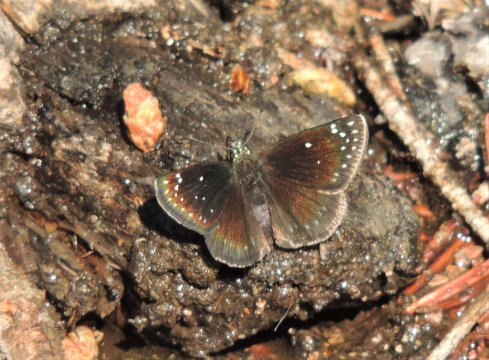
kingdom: Animalia
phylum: Arthropoda
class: Insecta
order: Lepidoptera
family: Hesperiidae
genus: Pholisora
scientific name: Pholisora catullus
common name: Common Sootywing
